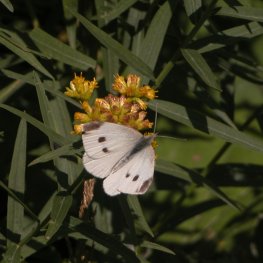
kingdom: Animalia
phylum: Arthropoda
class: Insecta
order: Lepidoptera
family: Pieridae
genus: Pieris
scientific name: Pieris rapae
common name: Cabbage White
